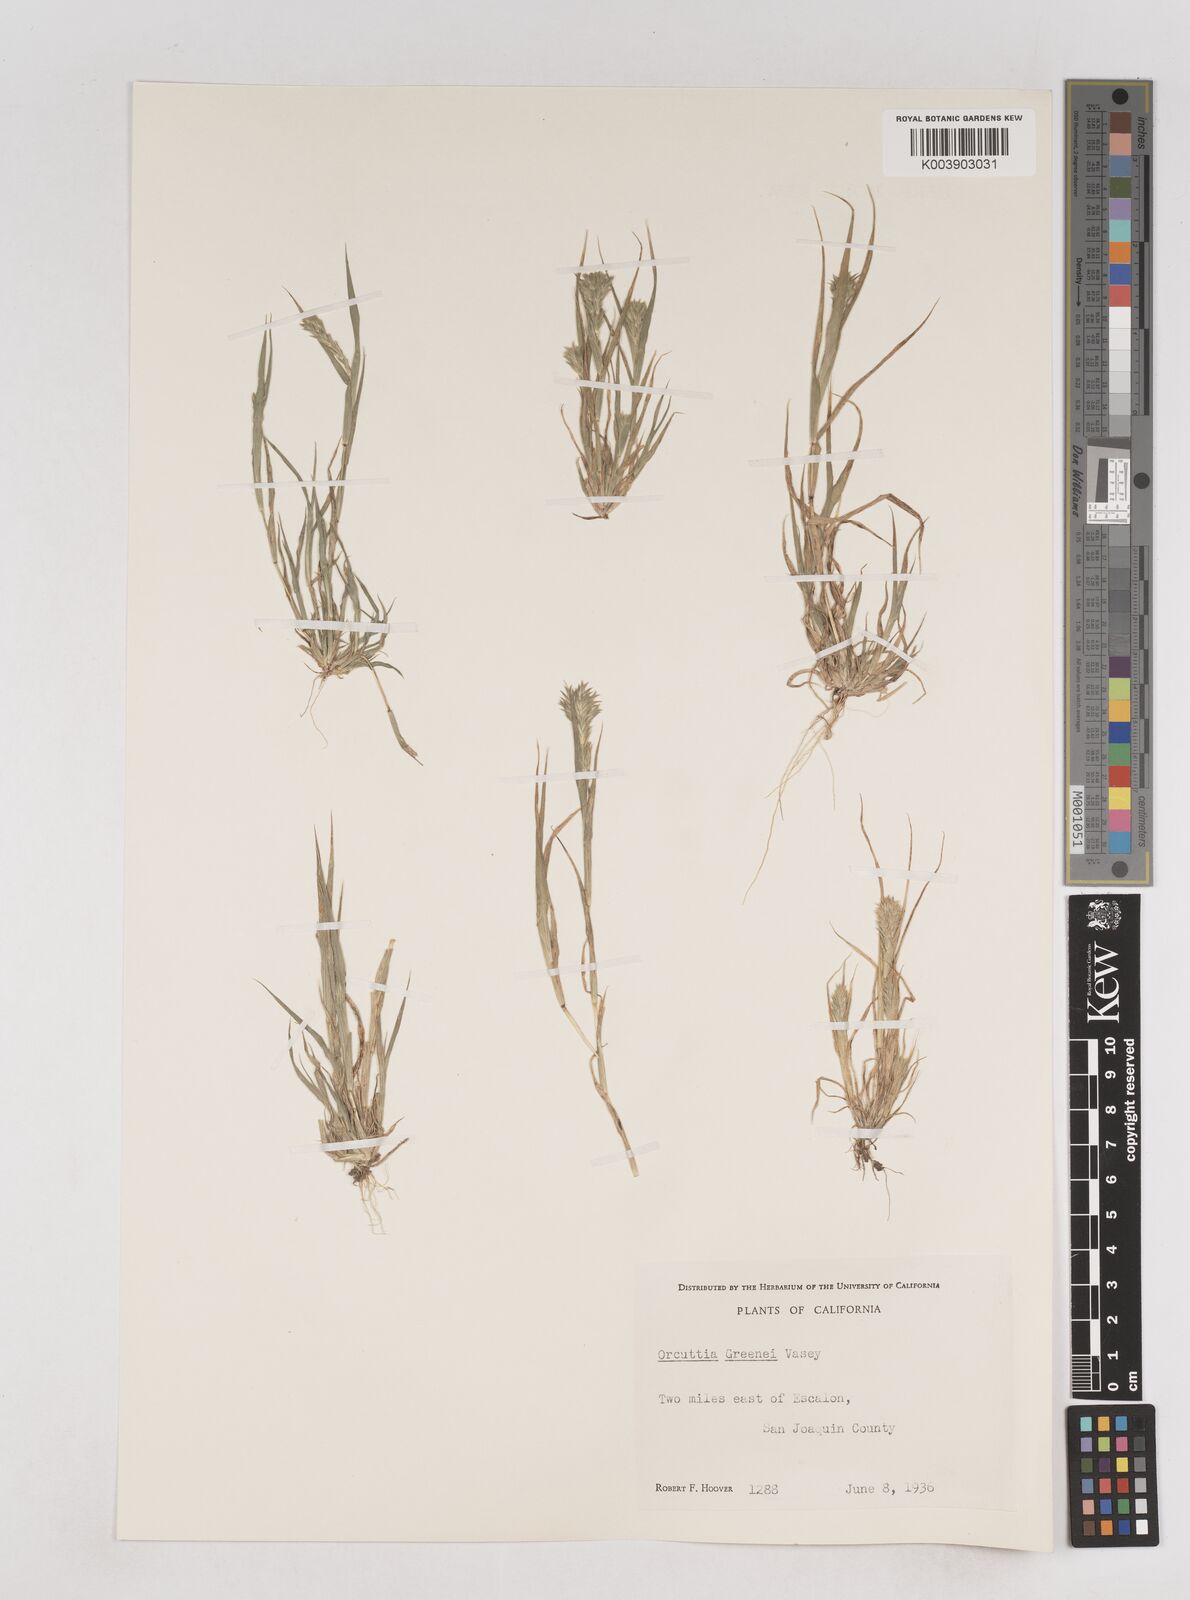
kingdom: Plantae
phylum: Tracheophyta
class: Liliopsida
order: Poales
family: Poaceae
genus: Tuctoria
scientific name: Tuctoria greenei
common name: Awnless spiral grass
